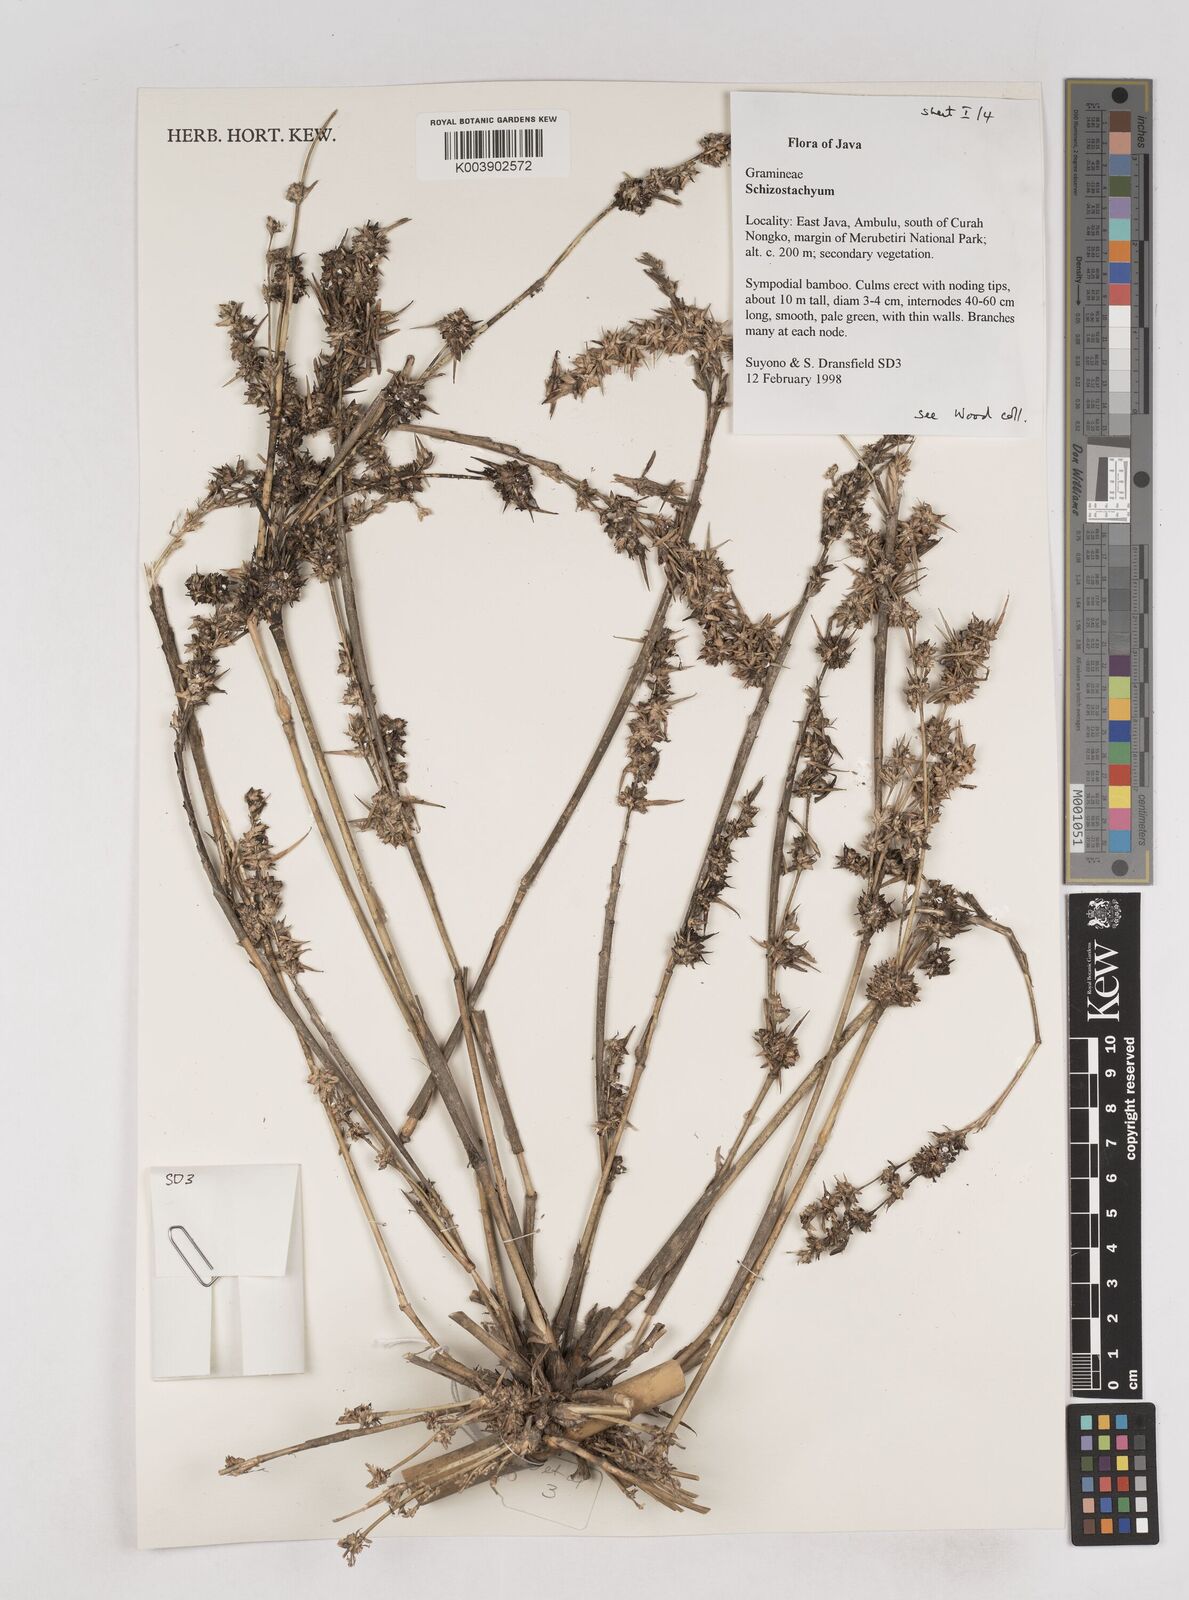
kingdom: Plantae
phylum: Tracheophyta
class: Liliopsida
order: Poales
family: Poaceae
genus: Schizostachyum
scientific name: Schizostachyum
